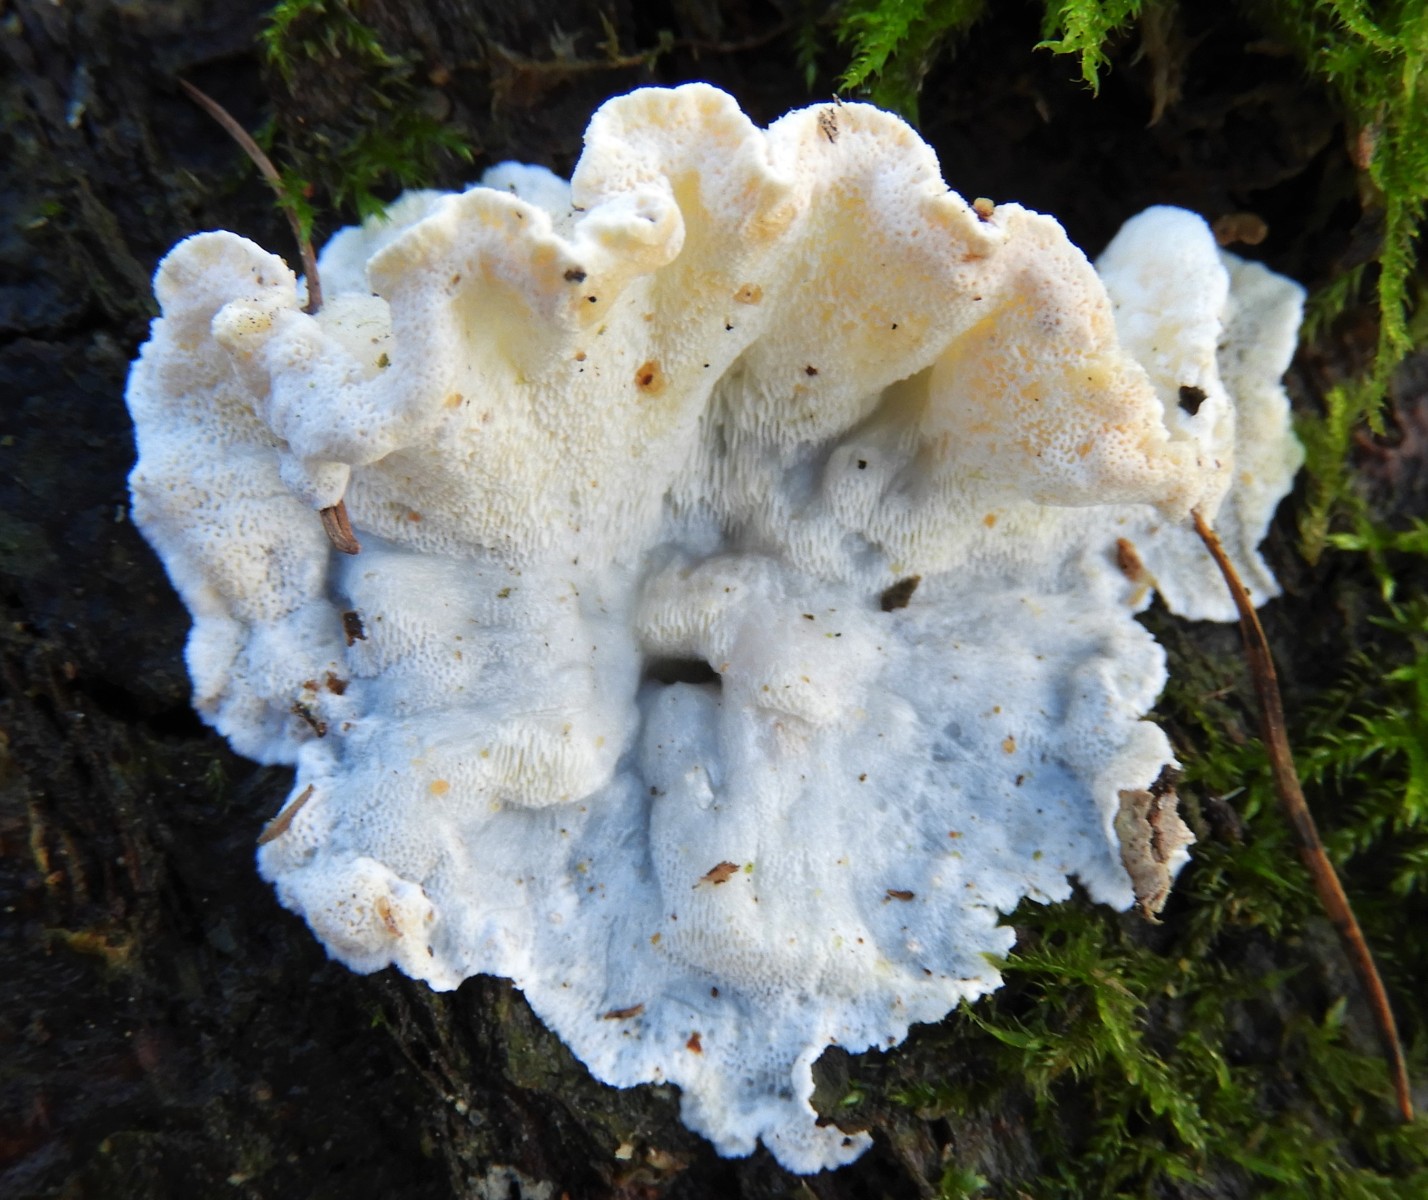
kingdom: Fungi
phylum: Basidiomycota
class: Agaricomycetes
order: Polyporales
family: Incrustoporiaceae
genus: Skeletocutis
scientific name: Skeletocutis amorpha
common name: orange krystalporesvamp
